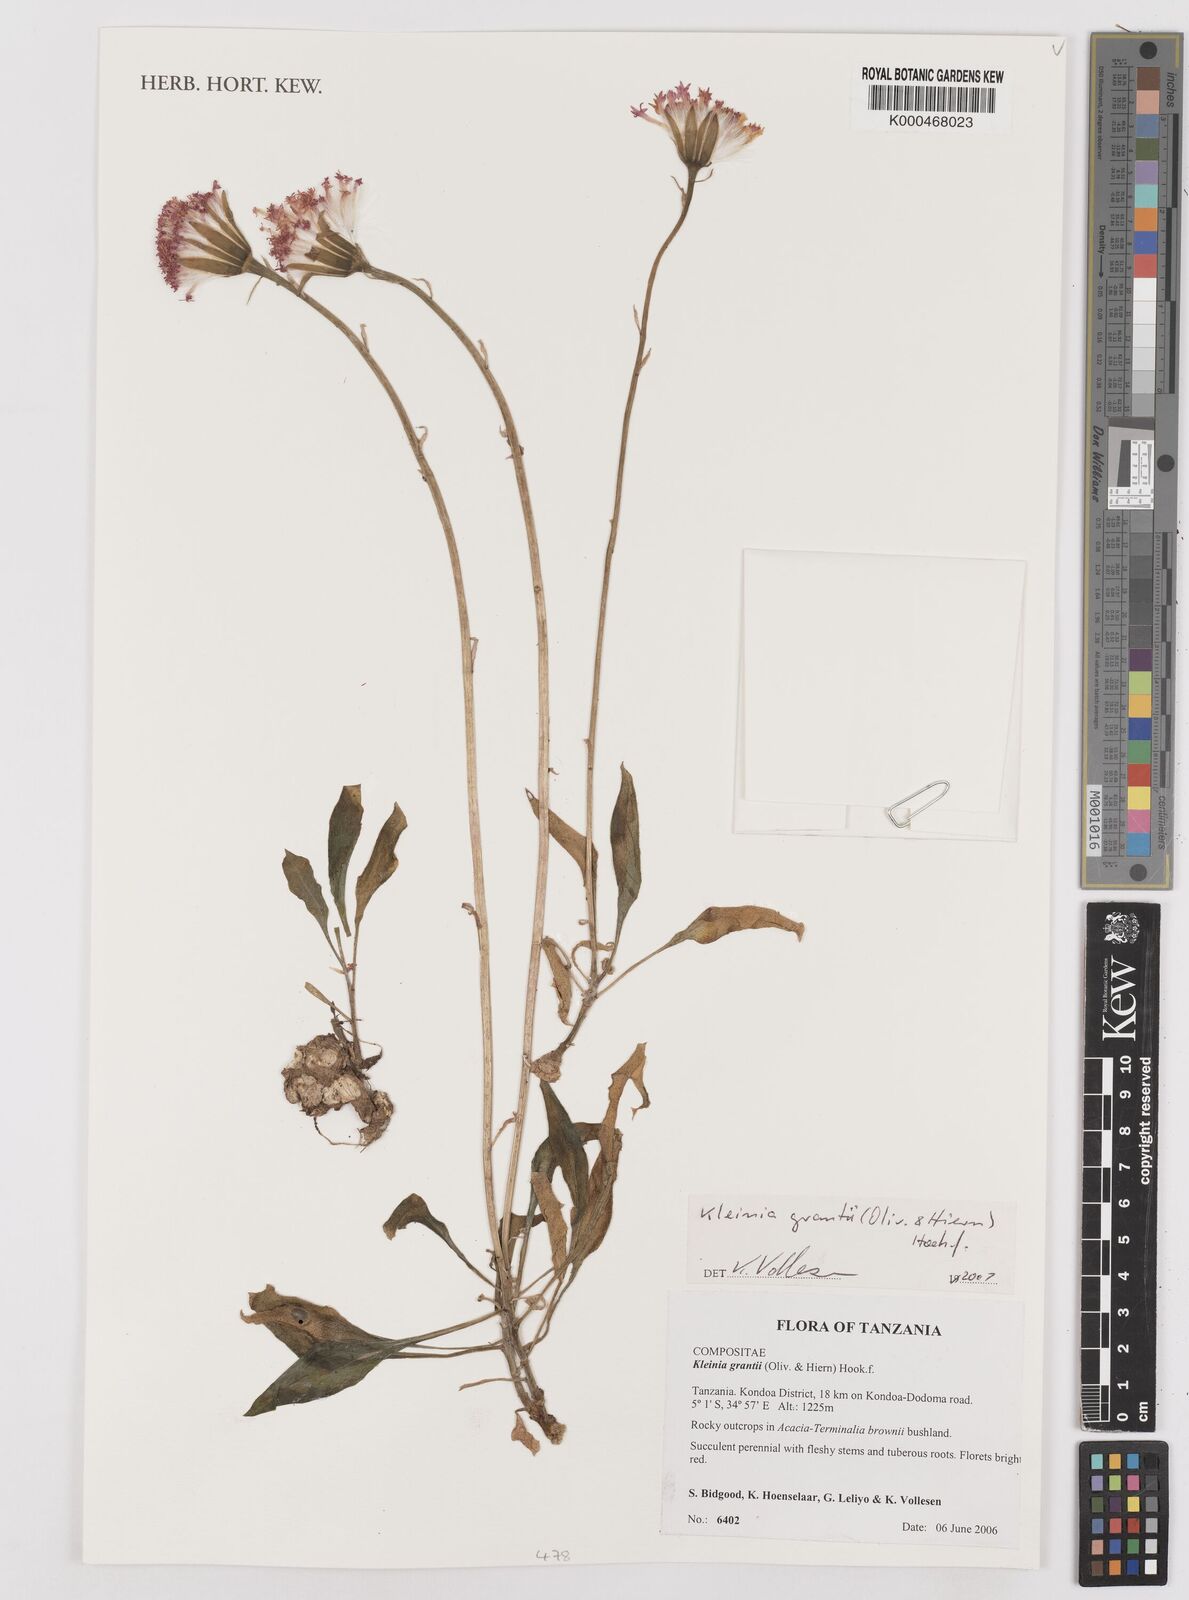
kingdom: Plantae
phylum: Tracheophyta
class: Magnoliopsida
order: Asterales
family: Asteraceae
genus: Kleinia
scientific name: Kleinia grantii
